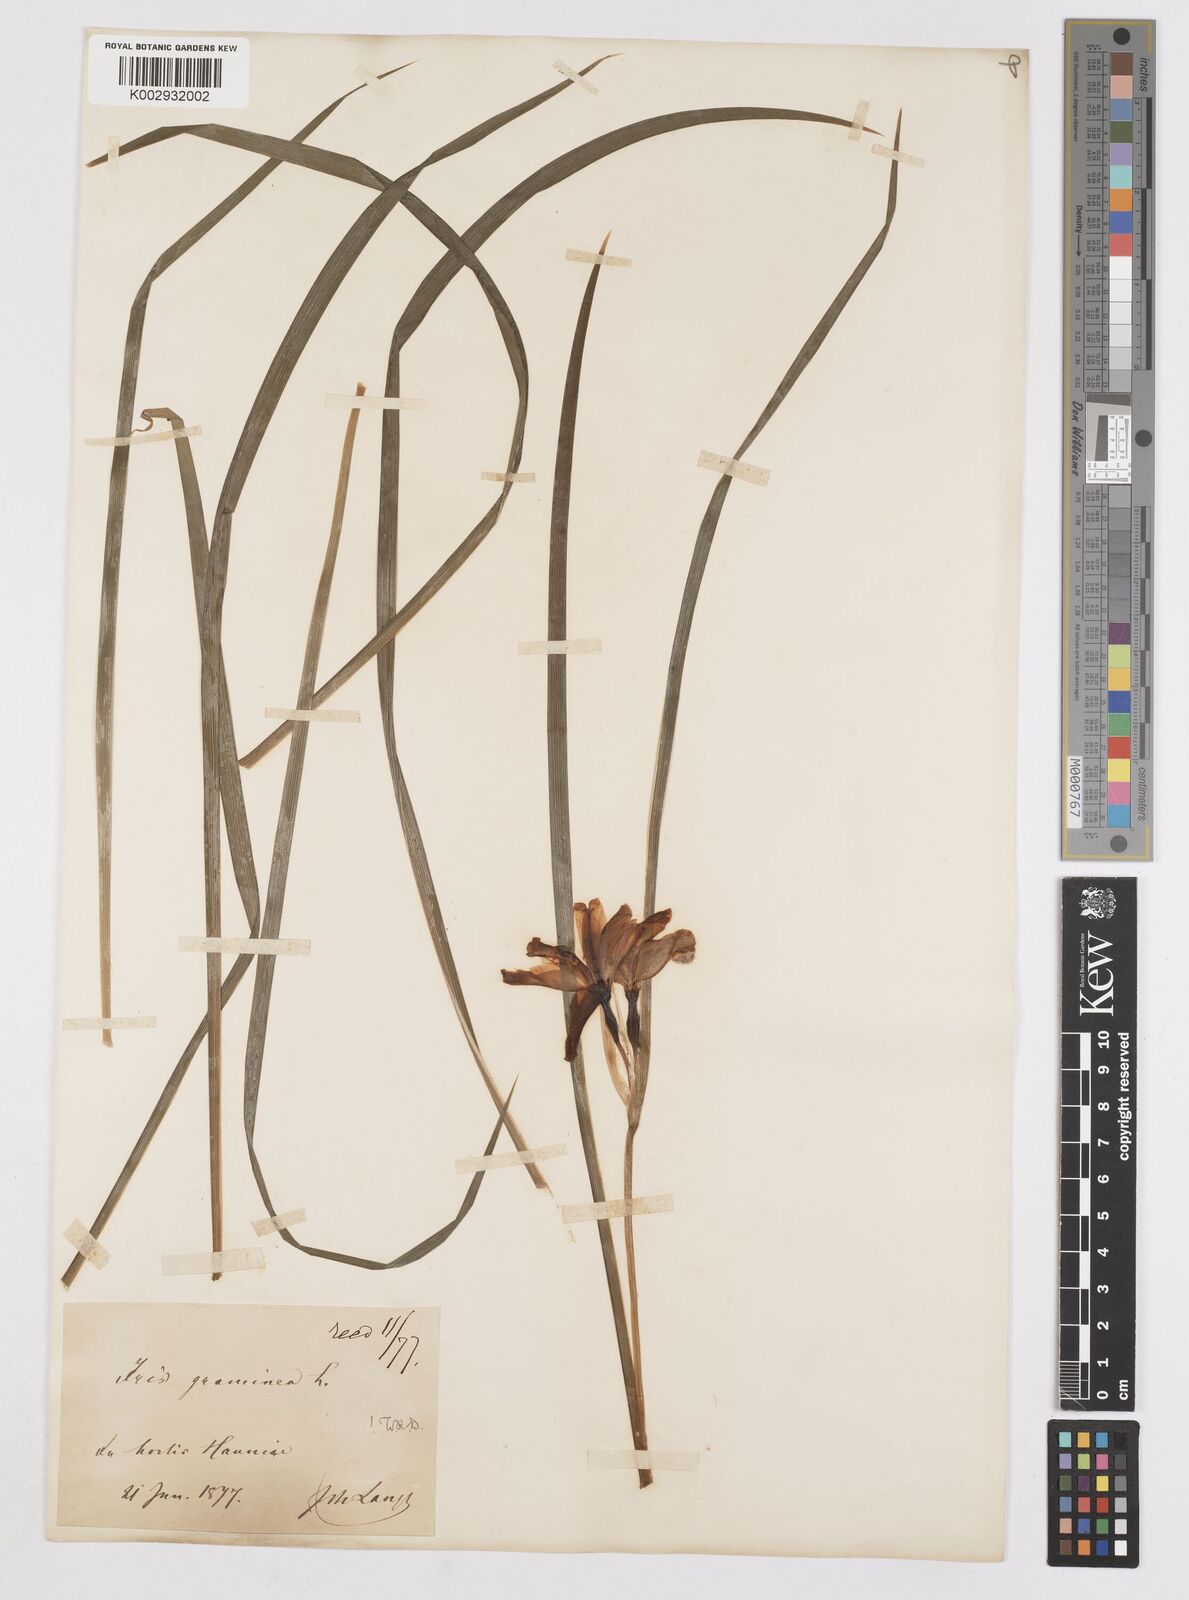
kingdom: Plantae
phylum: Tracheophyta
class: Liliopsida
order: Asparagales
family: Iridaceae
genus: Iris
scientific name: Iris graminea
